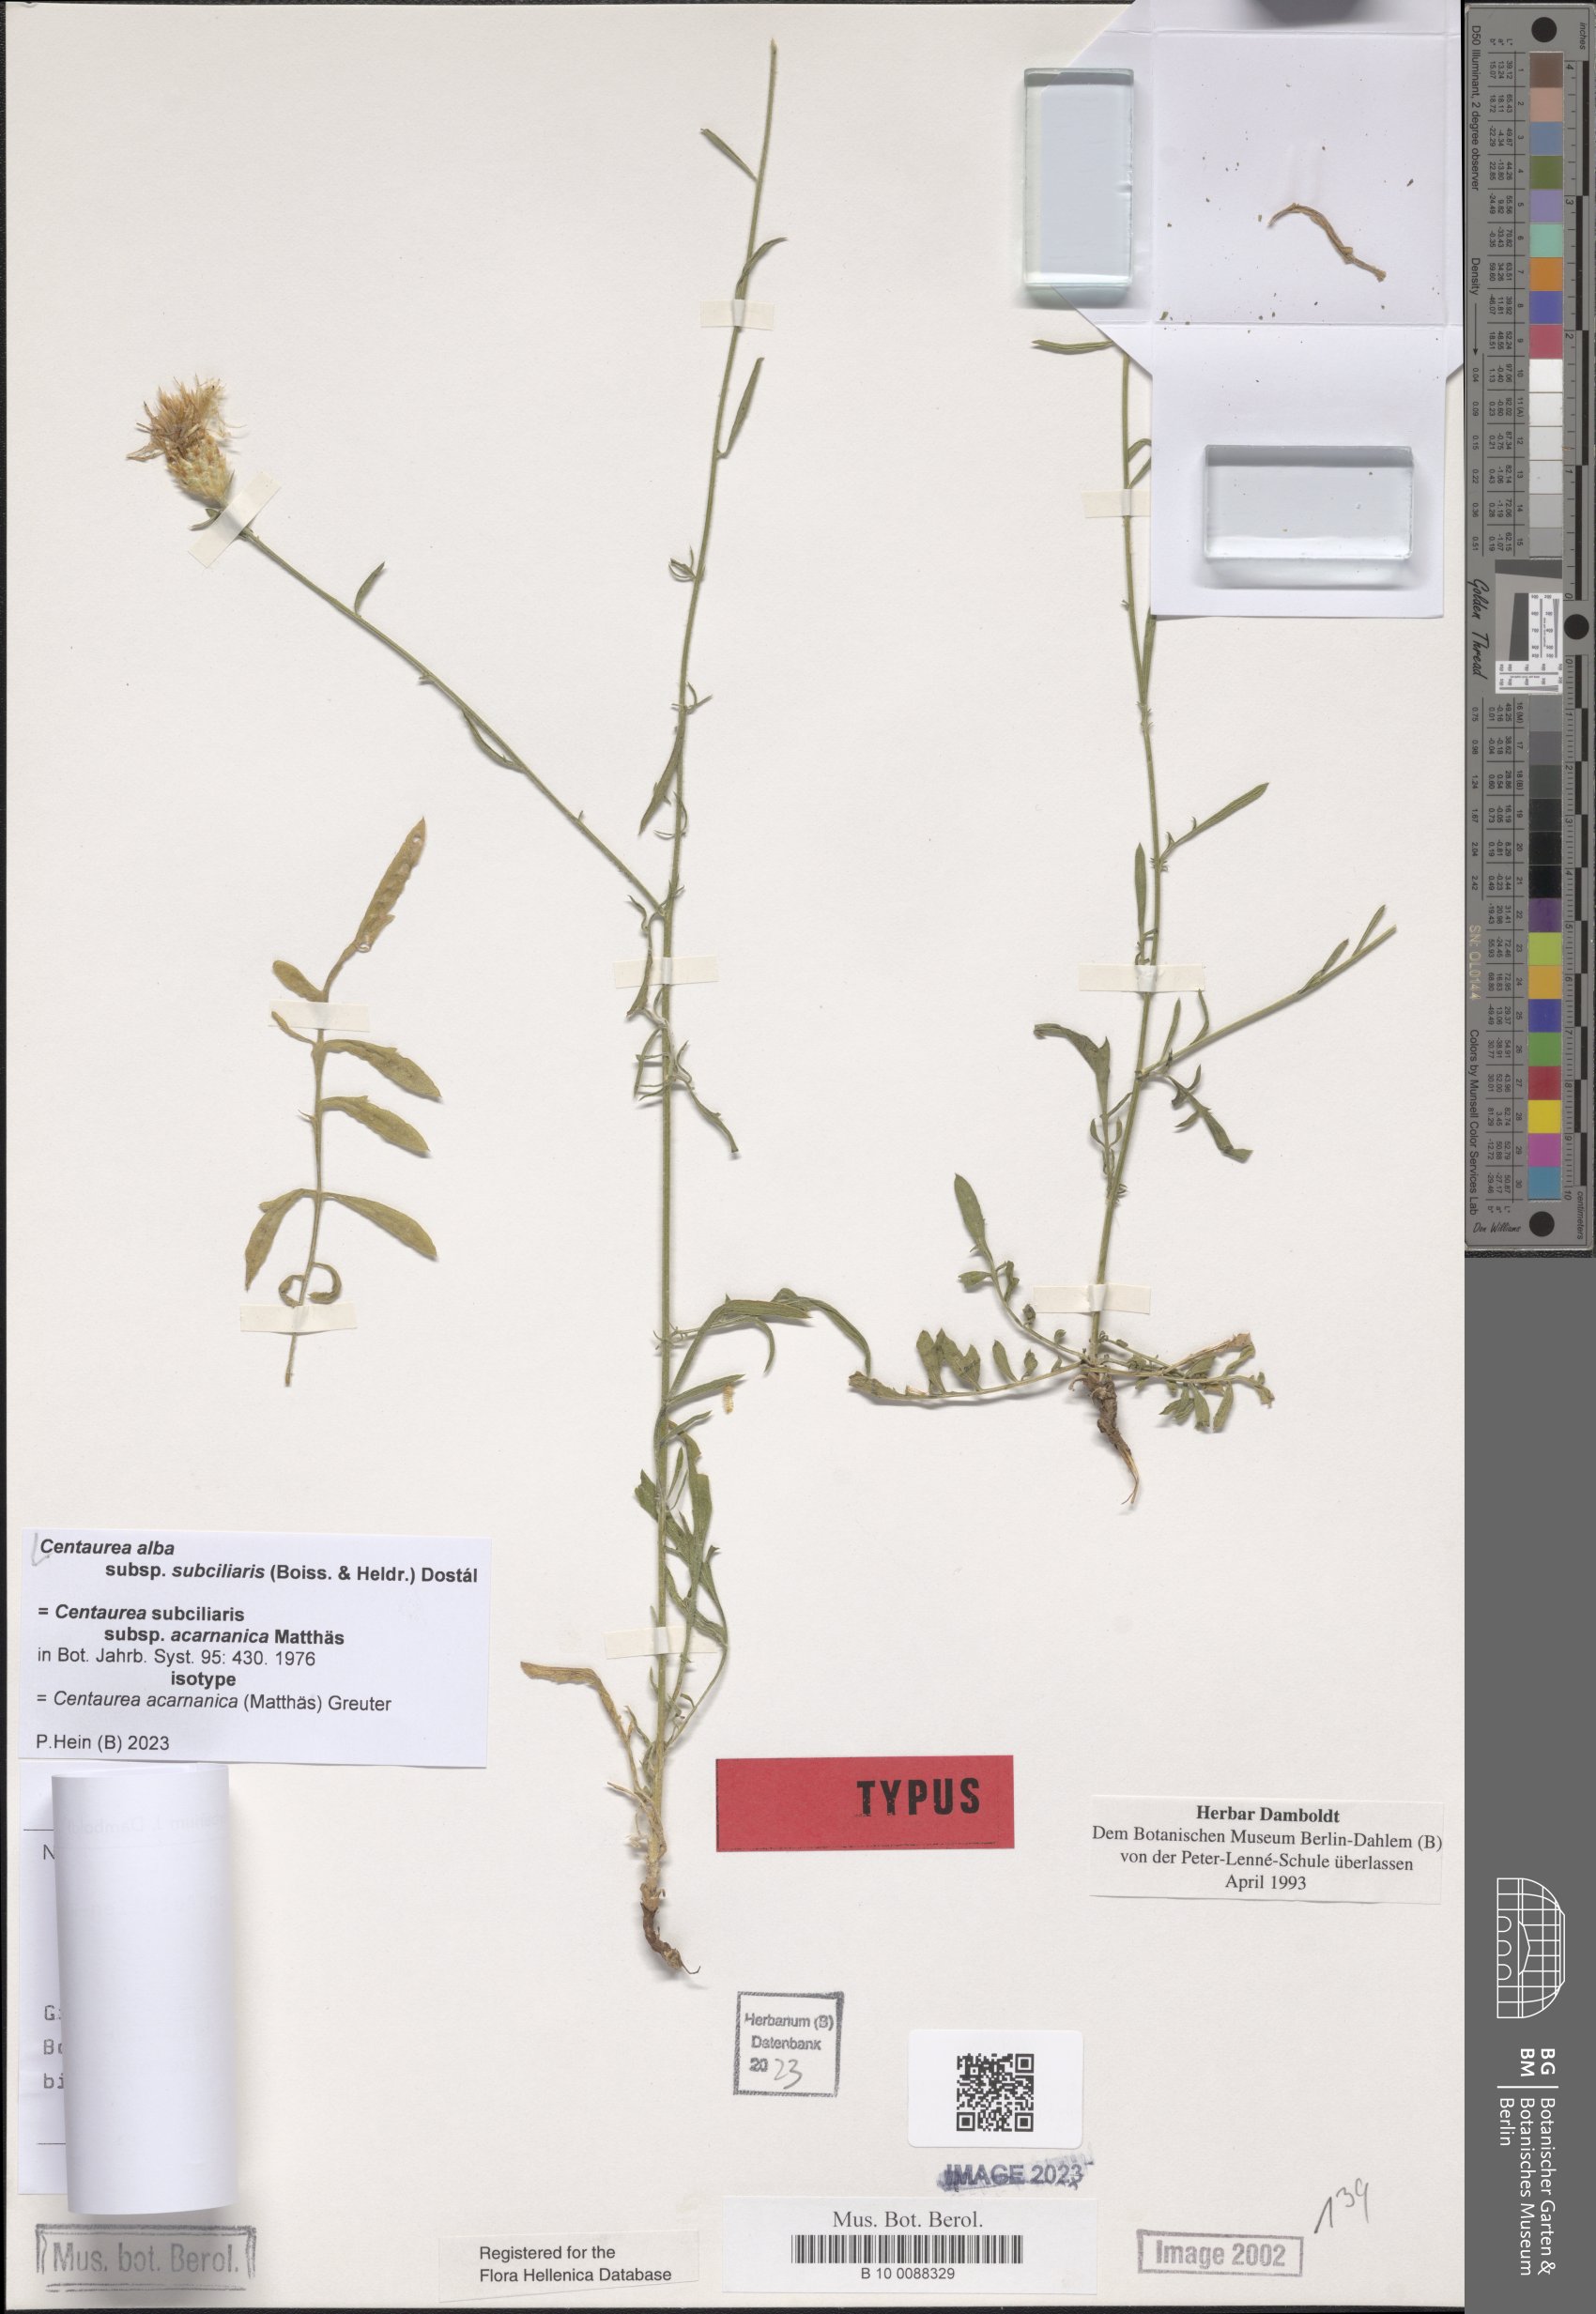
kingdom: Plantae
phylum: Tracheophyta
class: Magnoliopsida
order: Asterales
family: Asteraceae
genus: Centaurea
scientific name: Centaurea subciliaris
